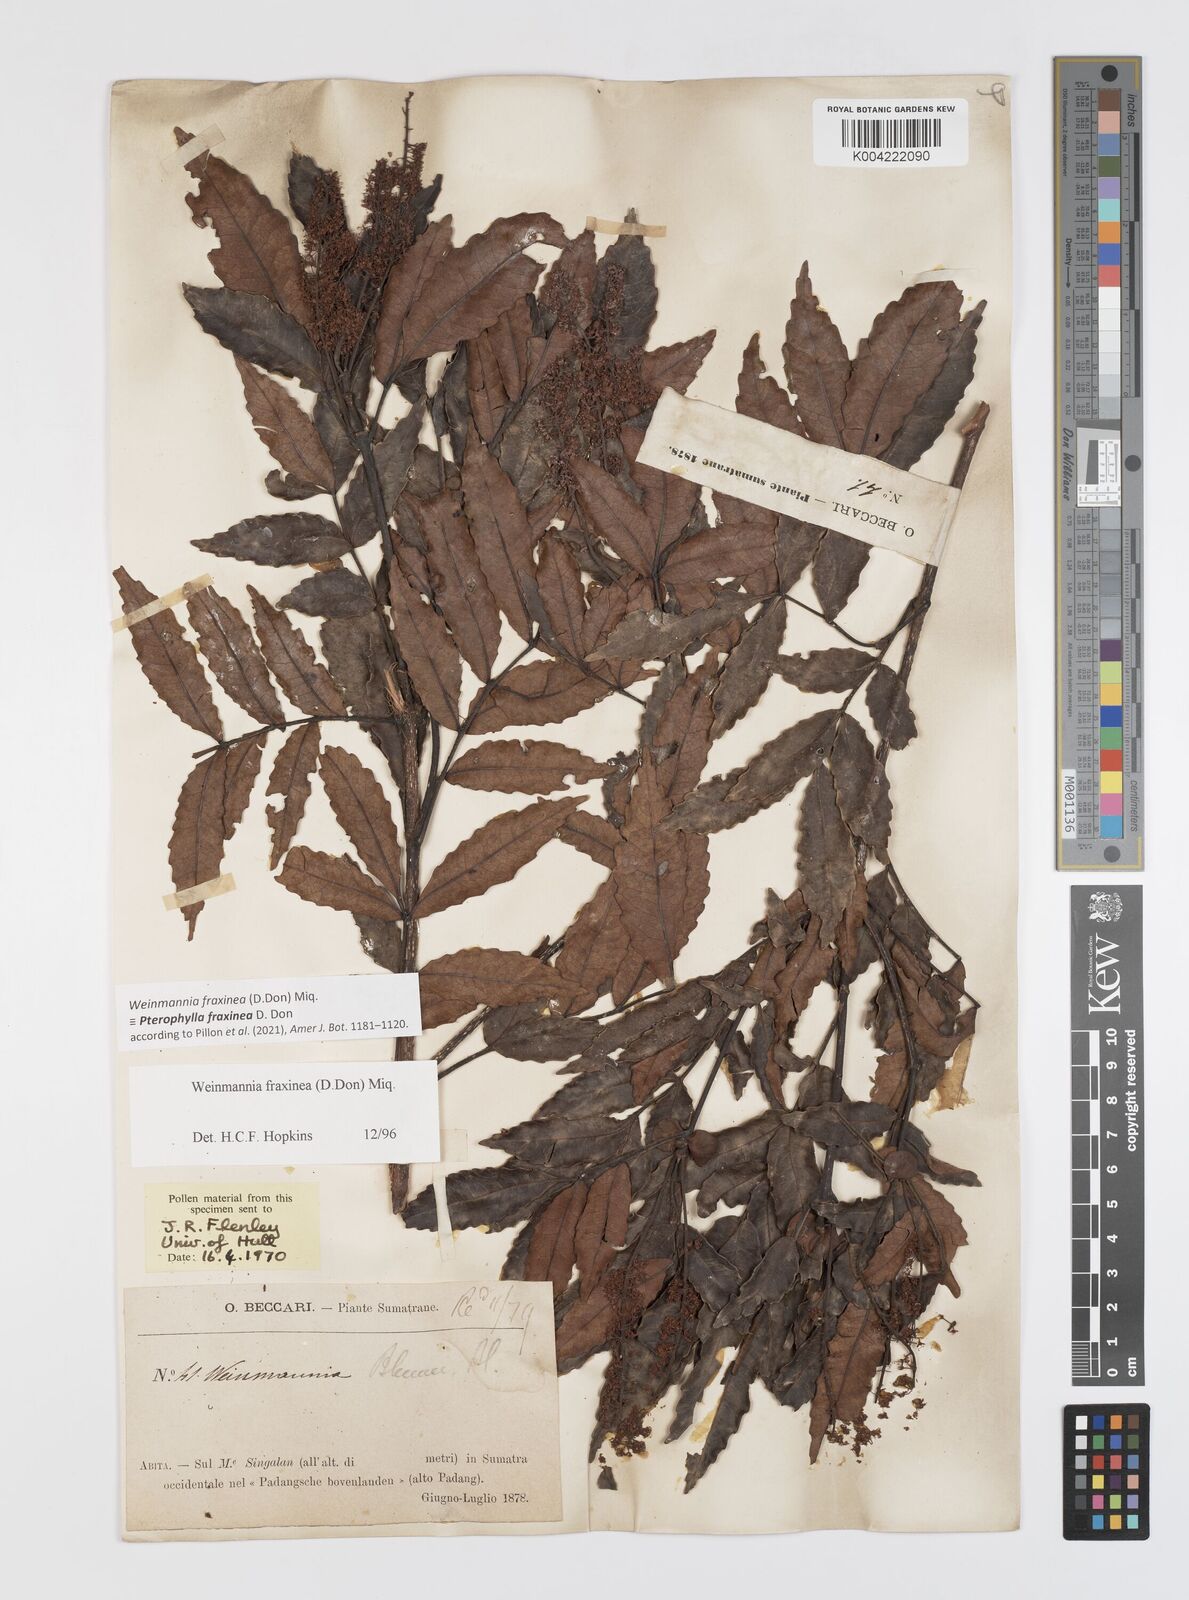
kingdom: Plantae
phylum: Tracheophyta
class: Magnoliopsida
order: Oxalidales
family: Cunoniaceae
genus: Pterophylla
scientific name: Pterophylla fraxinea
